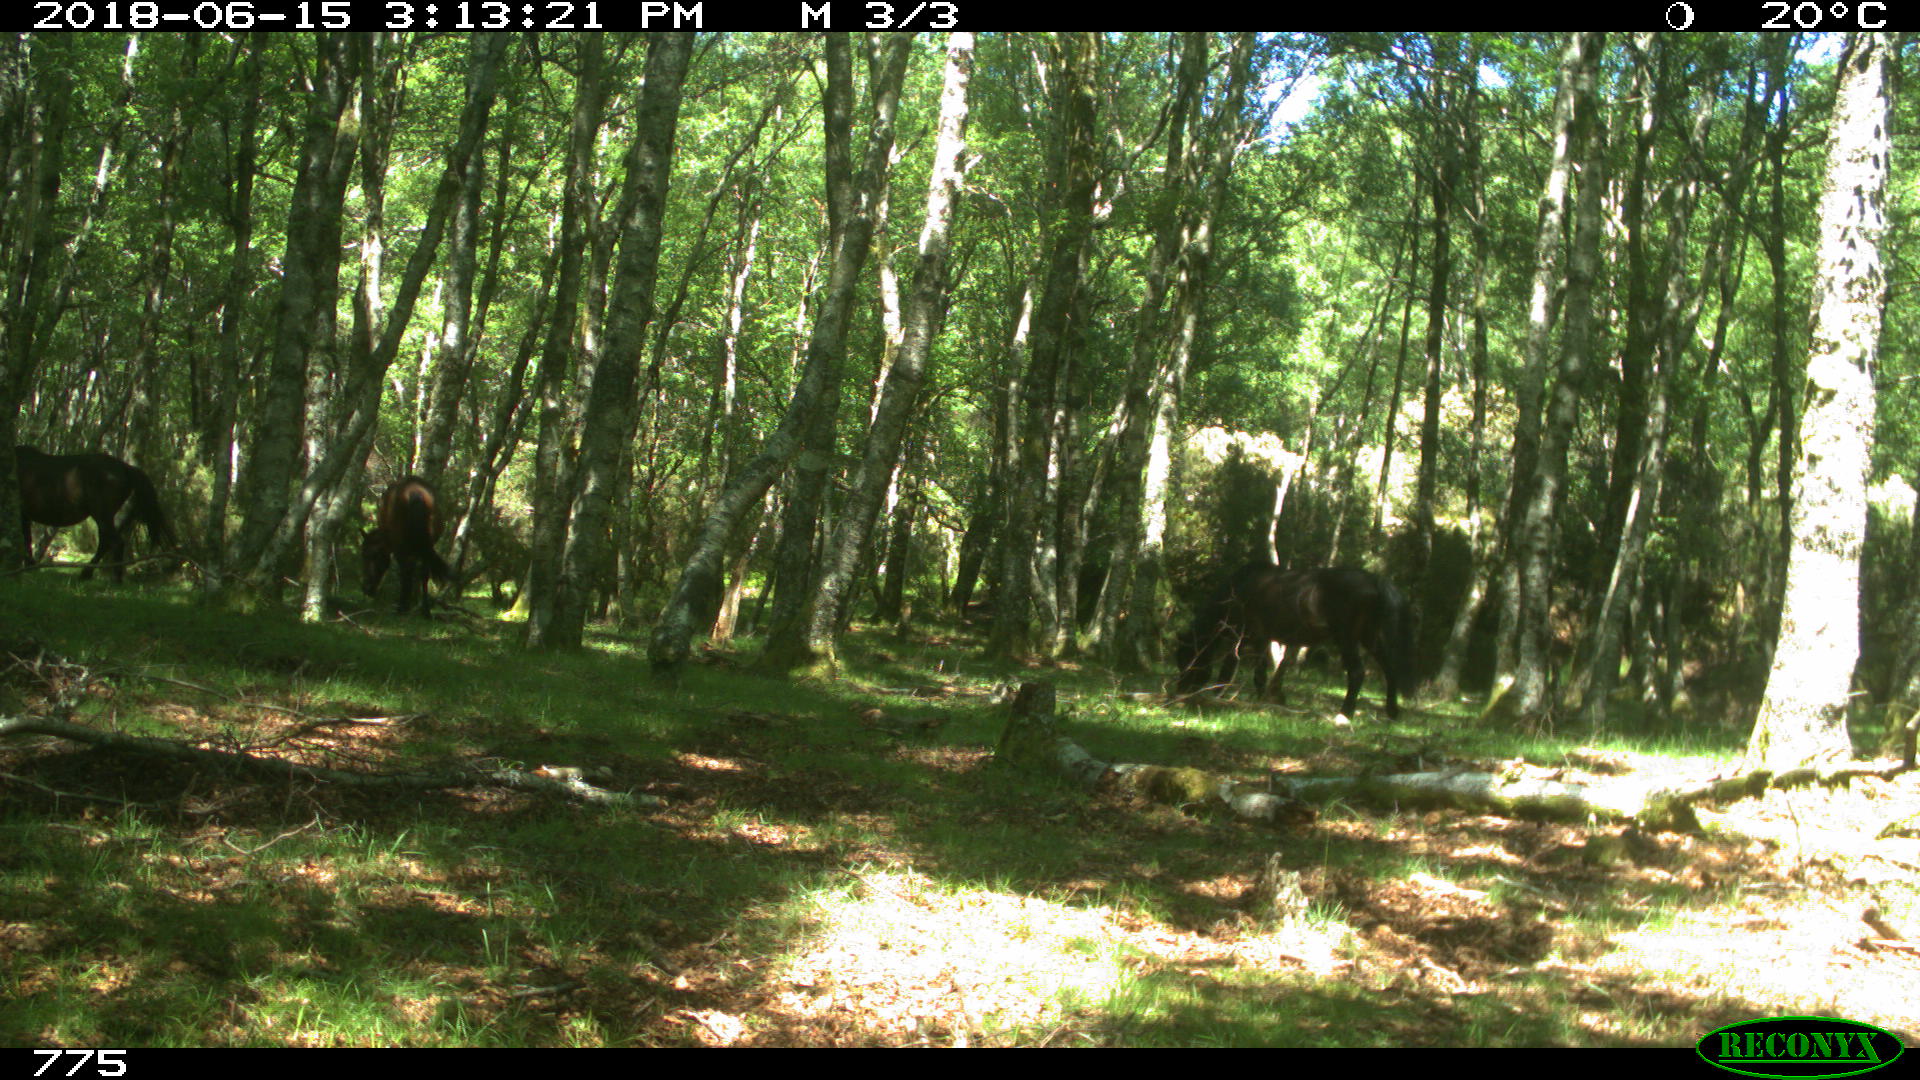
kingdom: Animalia
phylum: Chordata
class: Mammalia
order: Perissodactyla
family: Equidae
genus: Equus
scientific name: Equus caballus
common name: Horse
